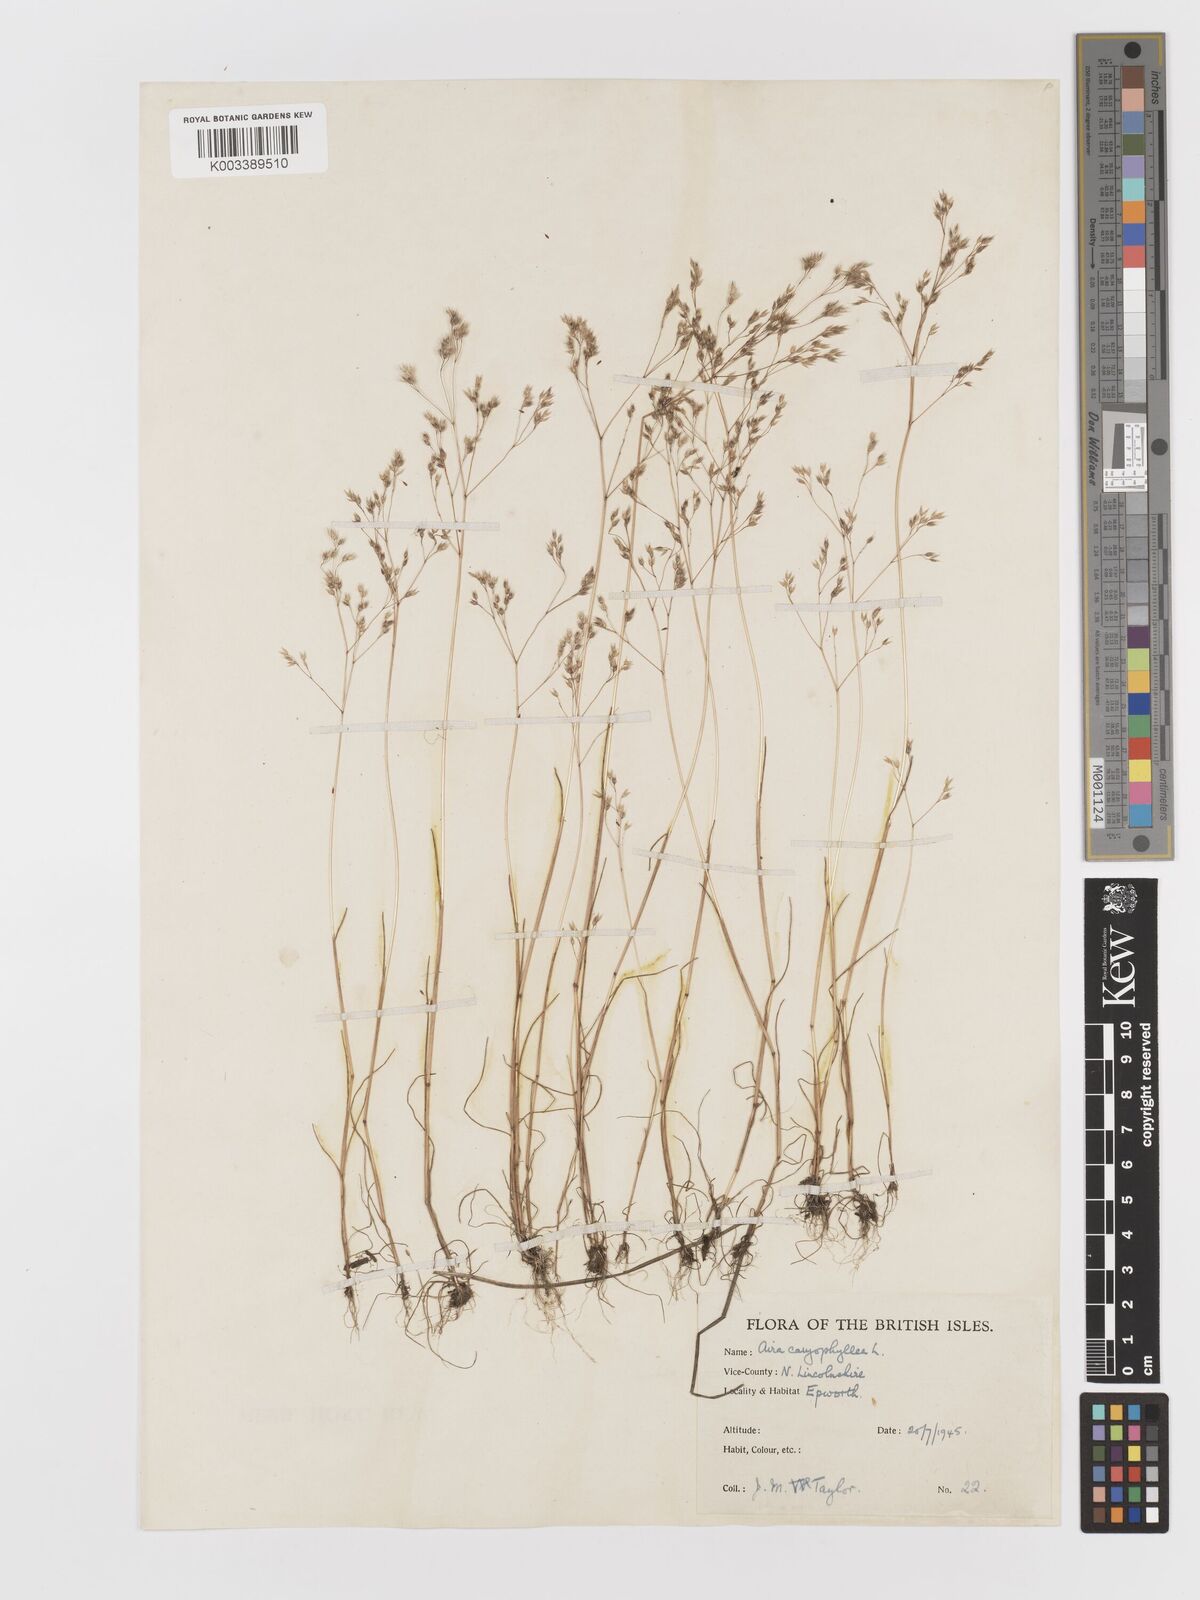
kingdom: Plantae
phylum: Tracheophyta
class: Liliopsida
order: Poales
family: Poaceae
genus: Aira
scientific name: Aira caryophyllea
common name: Silver hairgrass
